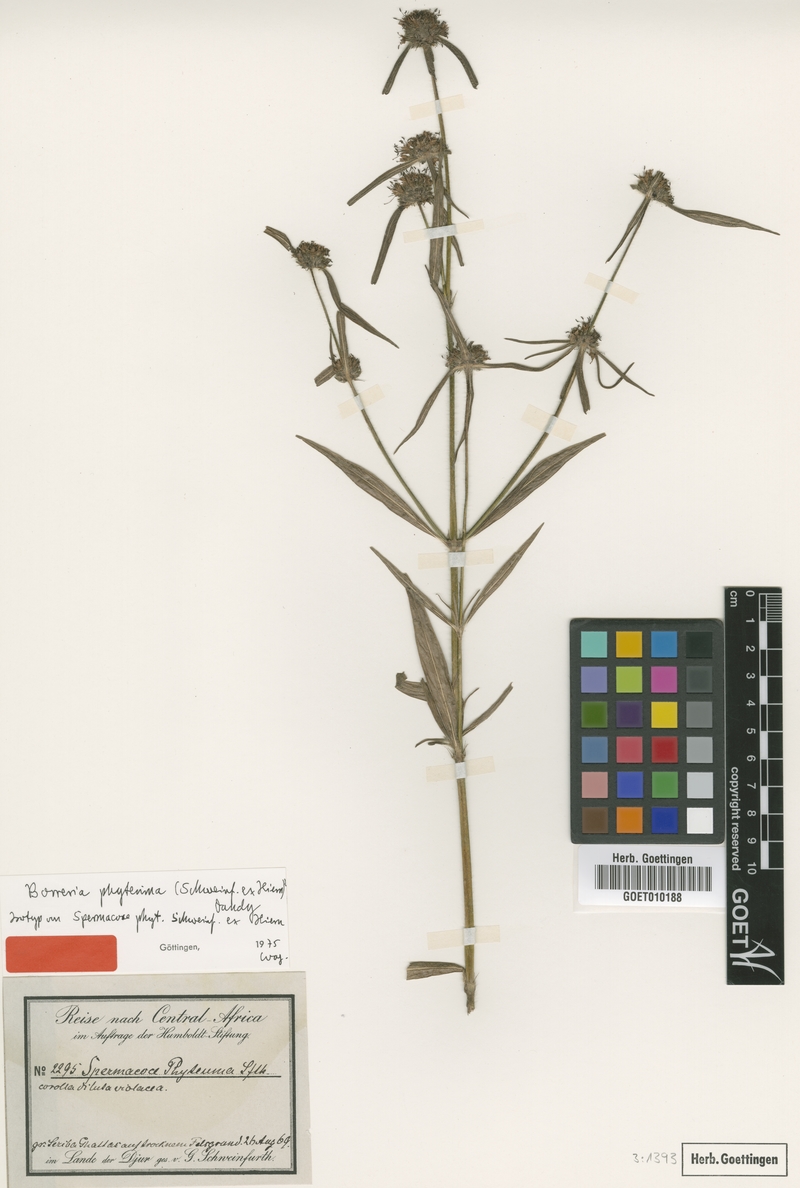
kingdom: Plantae
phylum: Tracheophyta
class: Magnoliopsida
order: Gentianales
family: Rubiaceae
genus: Spermacoce
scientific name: Spermacoce phyteuma
